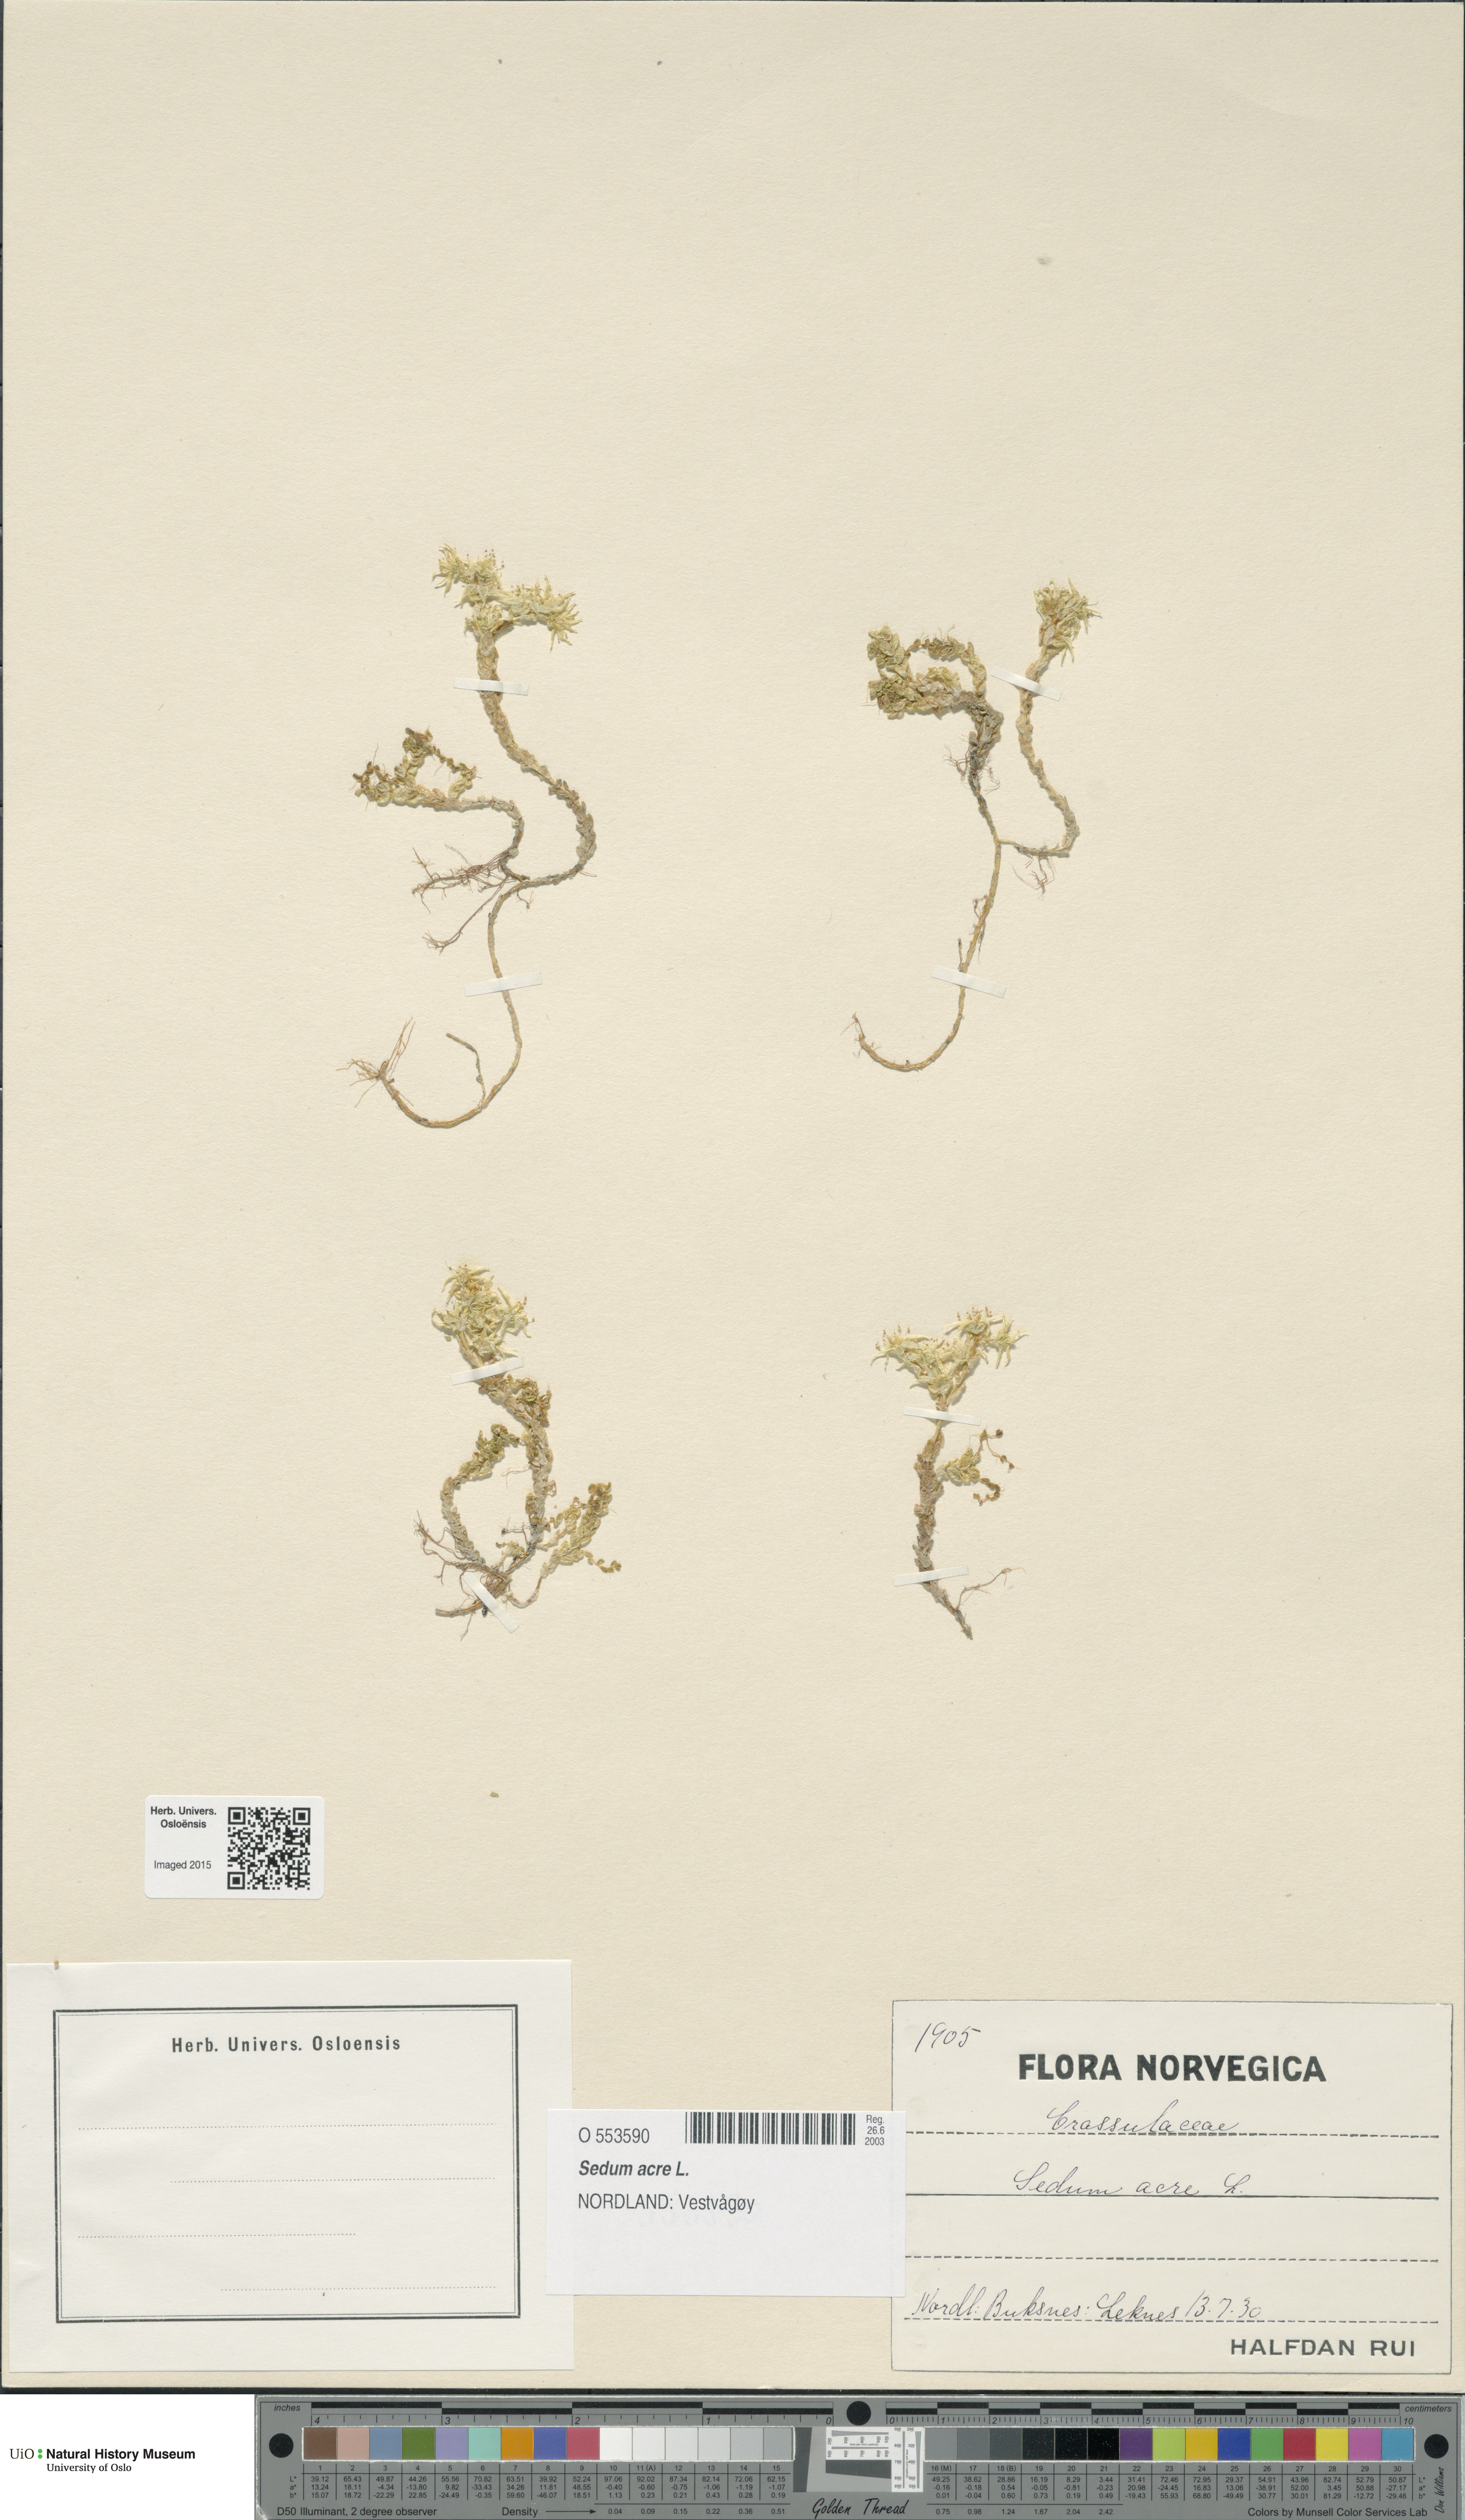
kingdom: Plantae
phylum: Tracheophyta
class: Magnoliopsida
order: Saxifragales
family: Crassulaceae
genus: Sedum
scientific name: Sedum acre
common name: Biting stonecrop
